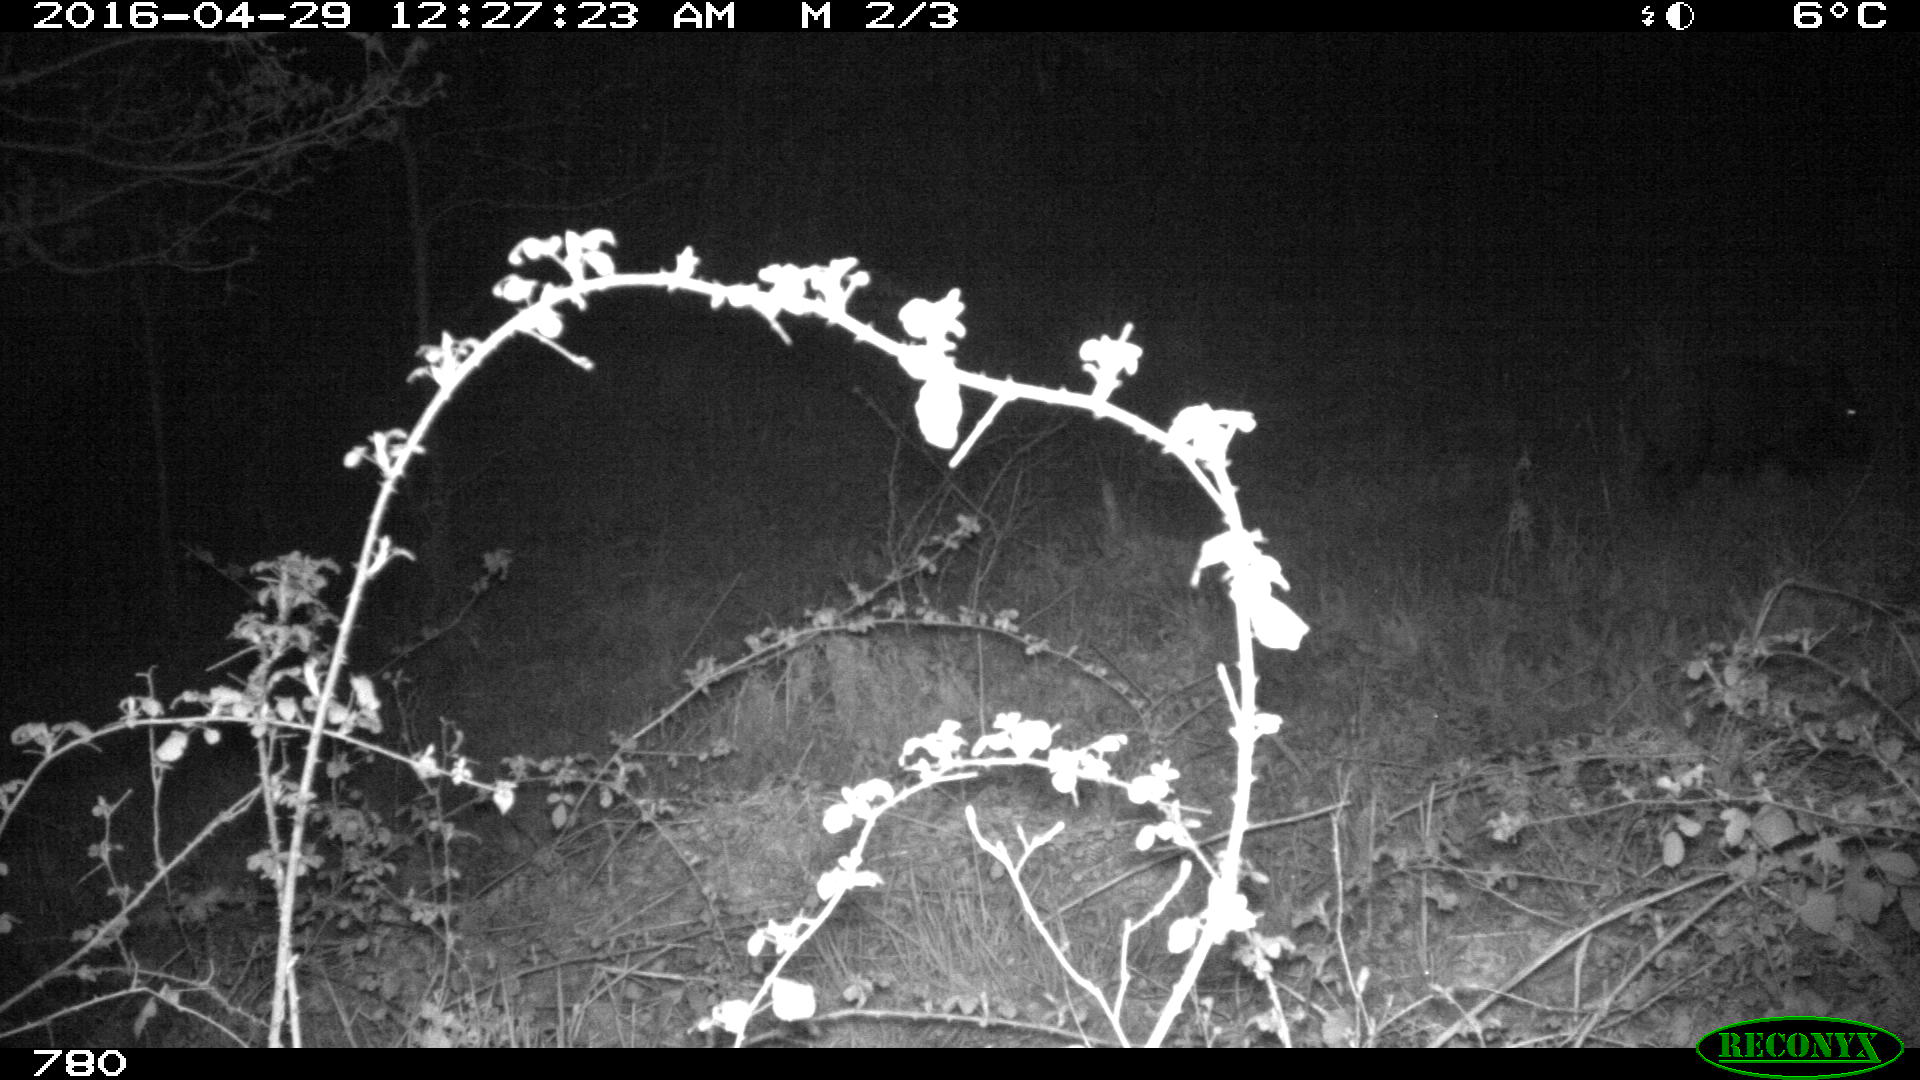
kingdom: Animalia
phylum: Chordata
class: Mammalia
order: Artiodactyla
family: Suidae
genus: Sus
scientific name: Sus scrofa
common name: Wild boar
